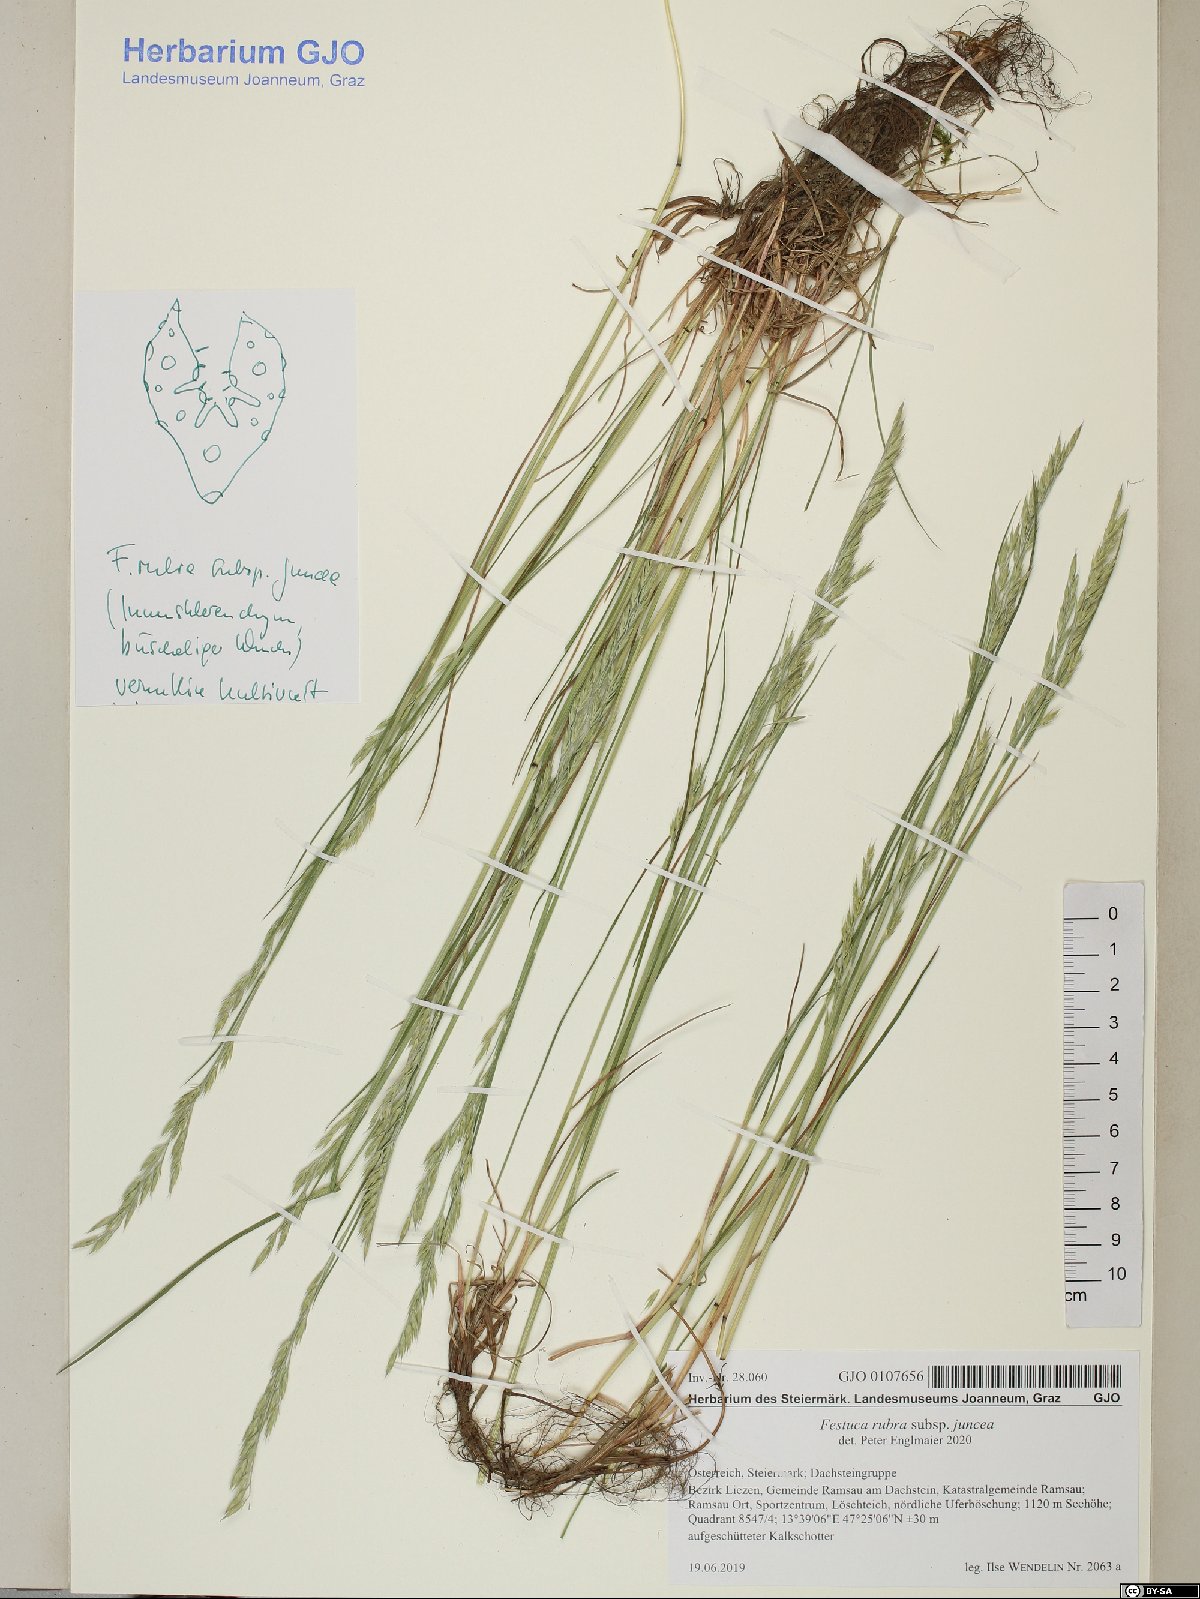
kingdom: Plantae
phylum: Tracheophyta
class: Liliopsida
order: Poales
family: Poaceae
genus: Festuca
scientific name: Festuca rubra
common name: Red fescue
